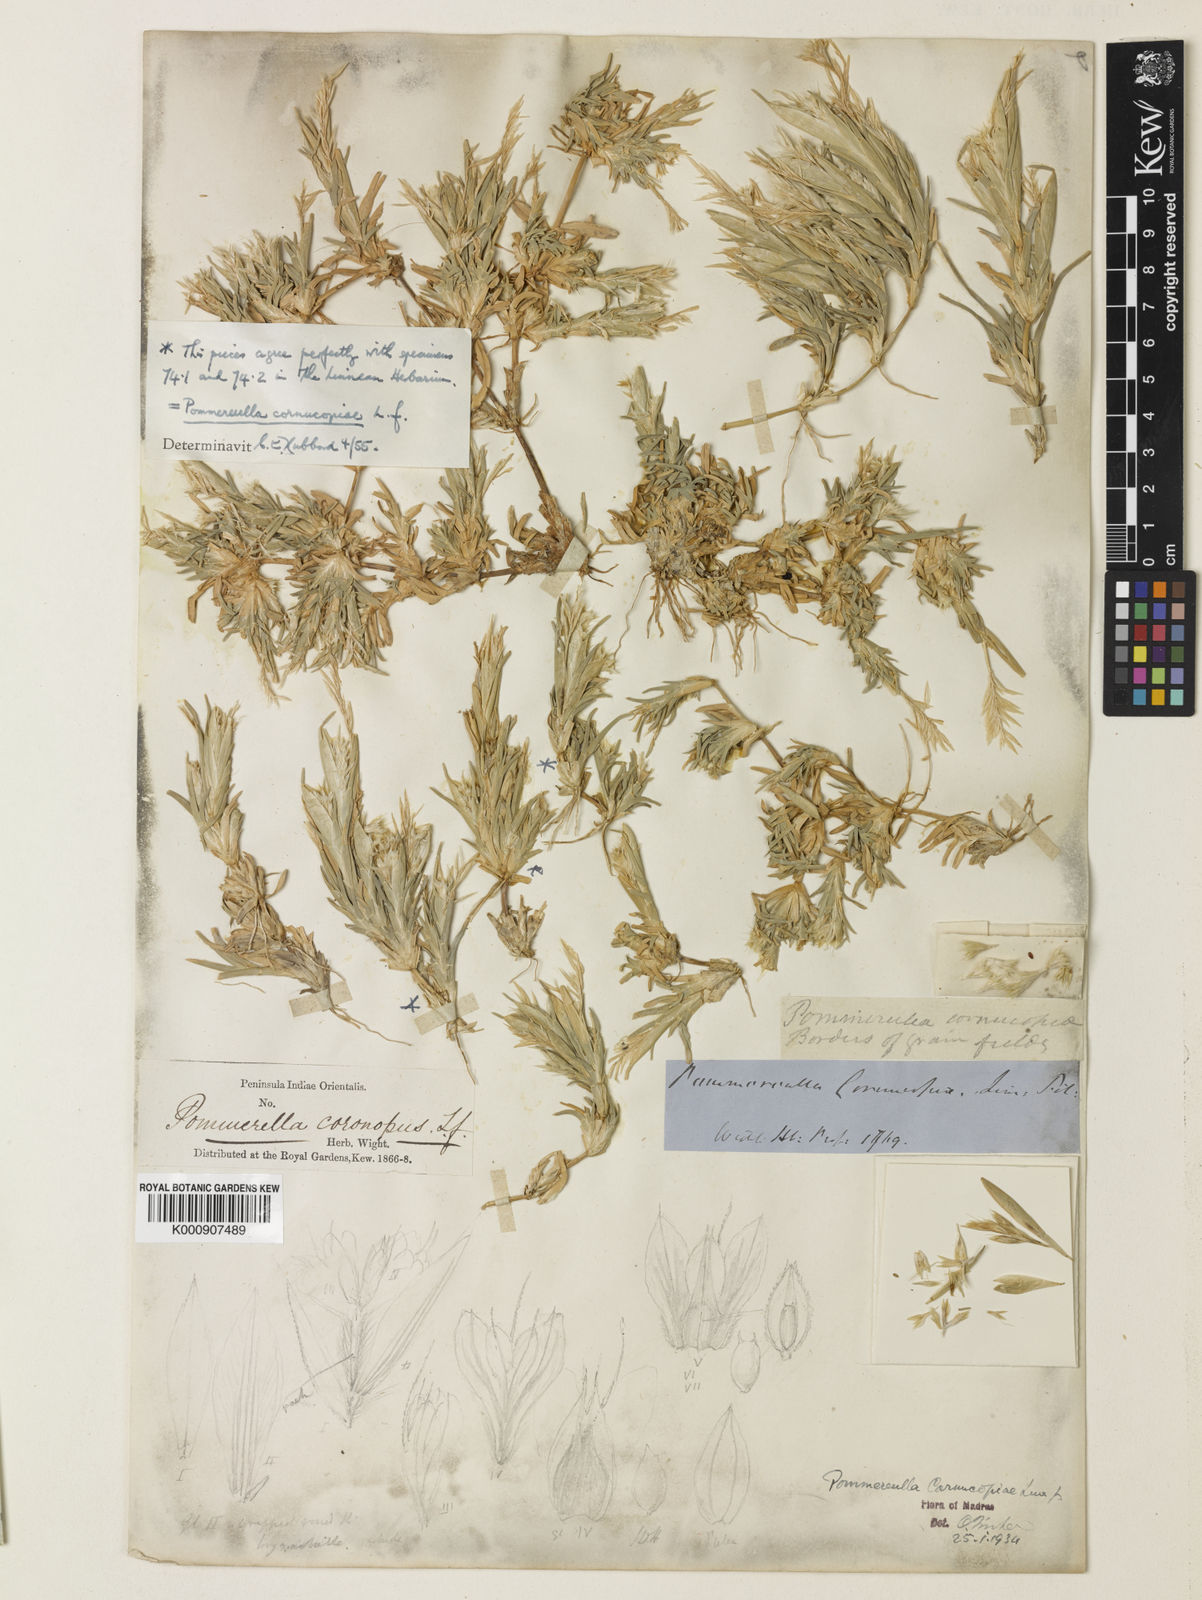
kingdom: Plantae
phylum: Tracheophyta
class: Liliopsida
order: Poales
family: Poaceae
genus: Pommereulla
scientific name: Pommereulla cornucopiae
